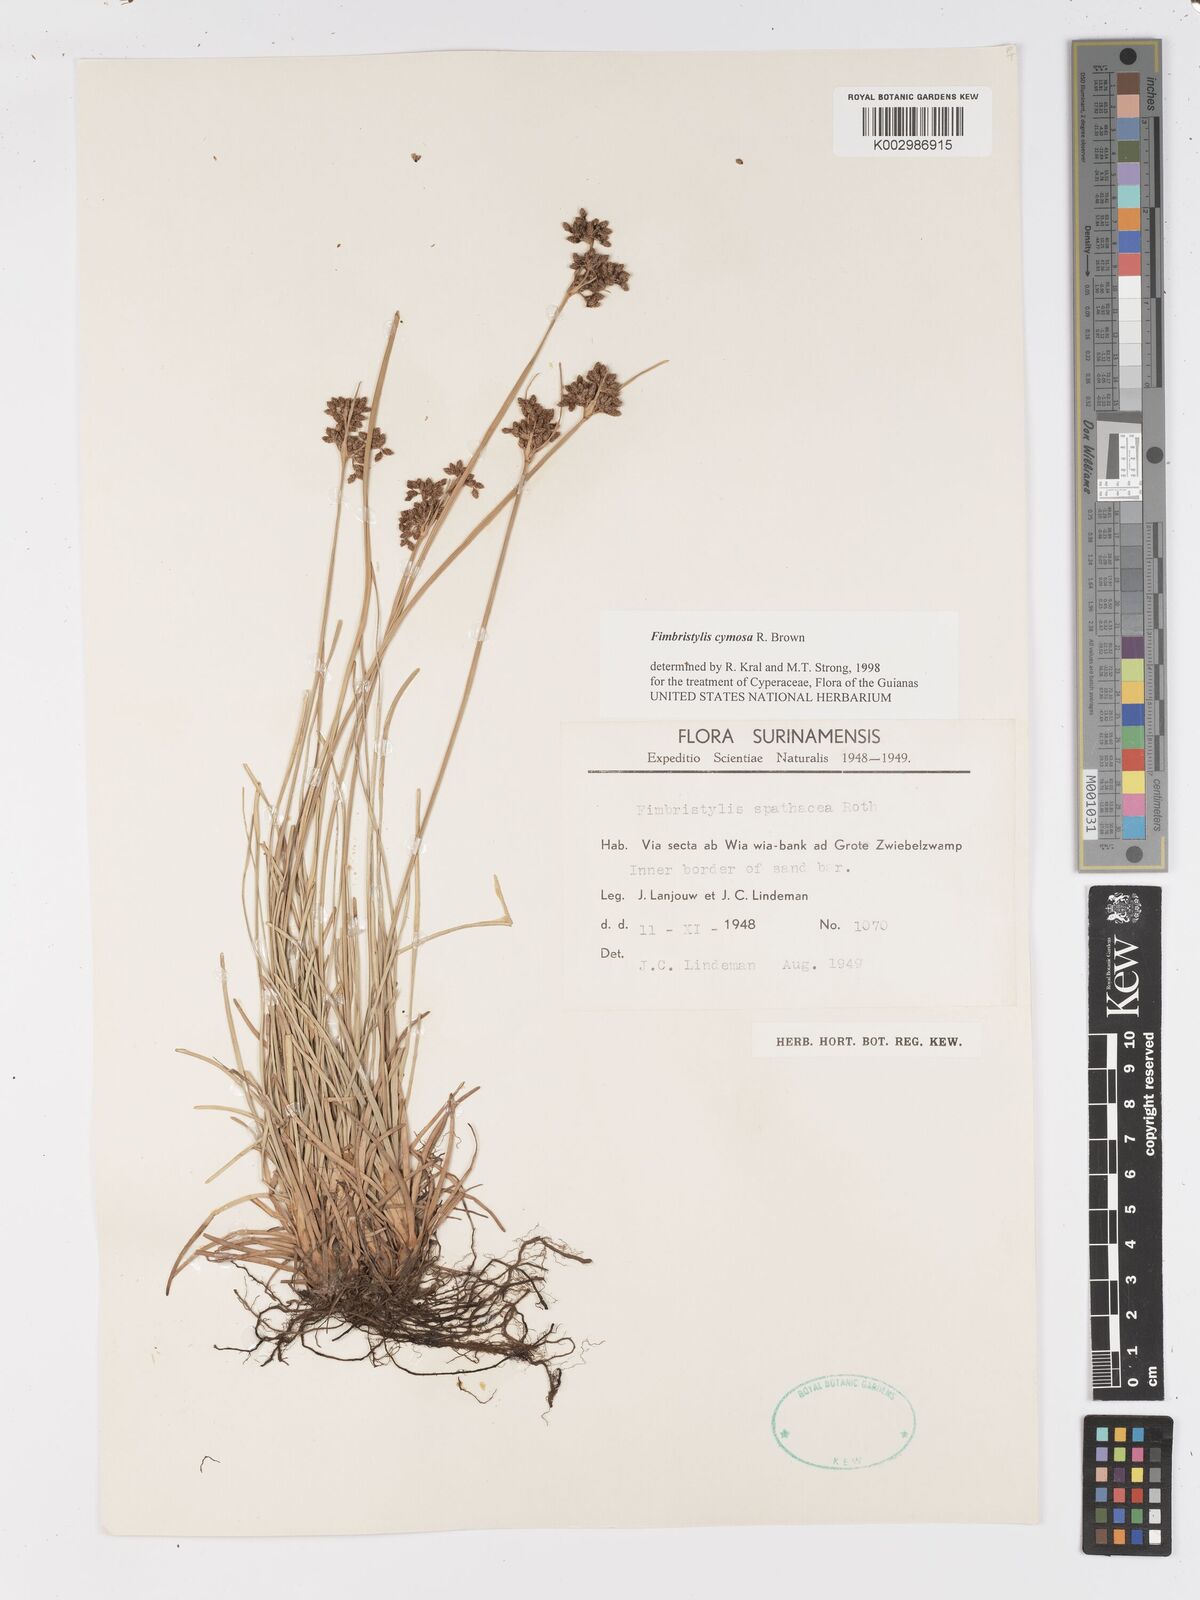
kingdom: Plantae
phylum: Tracheophyta
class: Liliopsida
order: Poales
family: Cyperaceae
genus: Fimbristylis
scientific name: Fimbristylis cymosa
